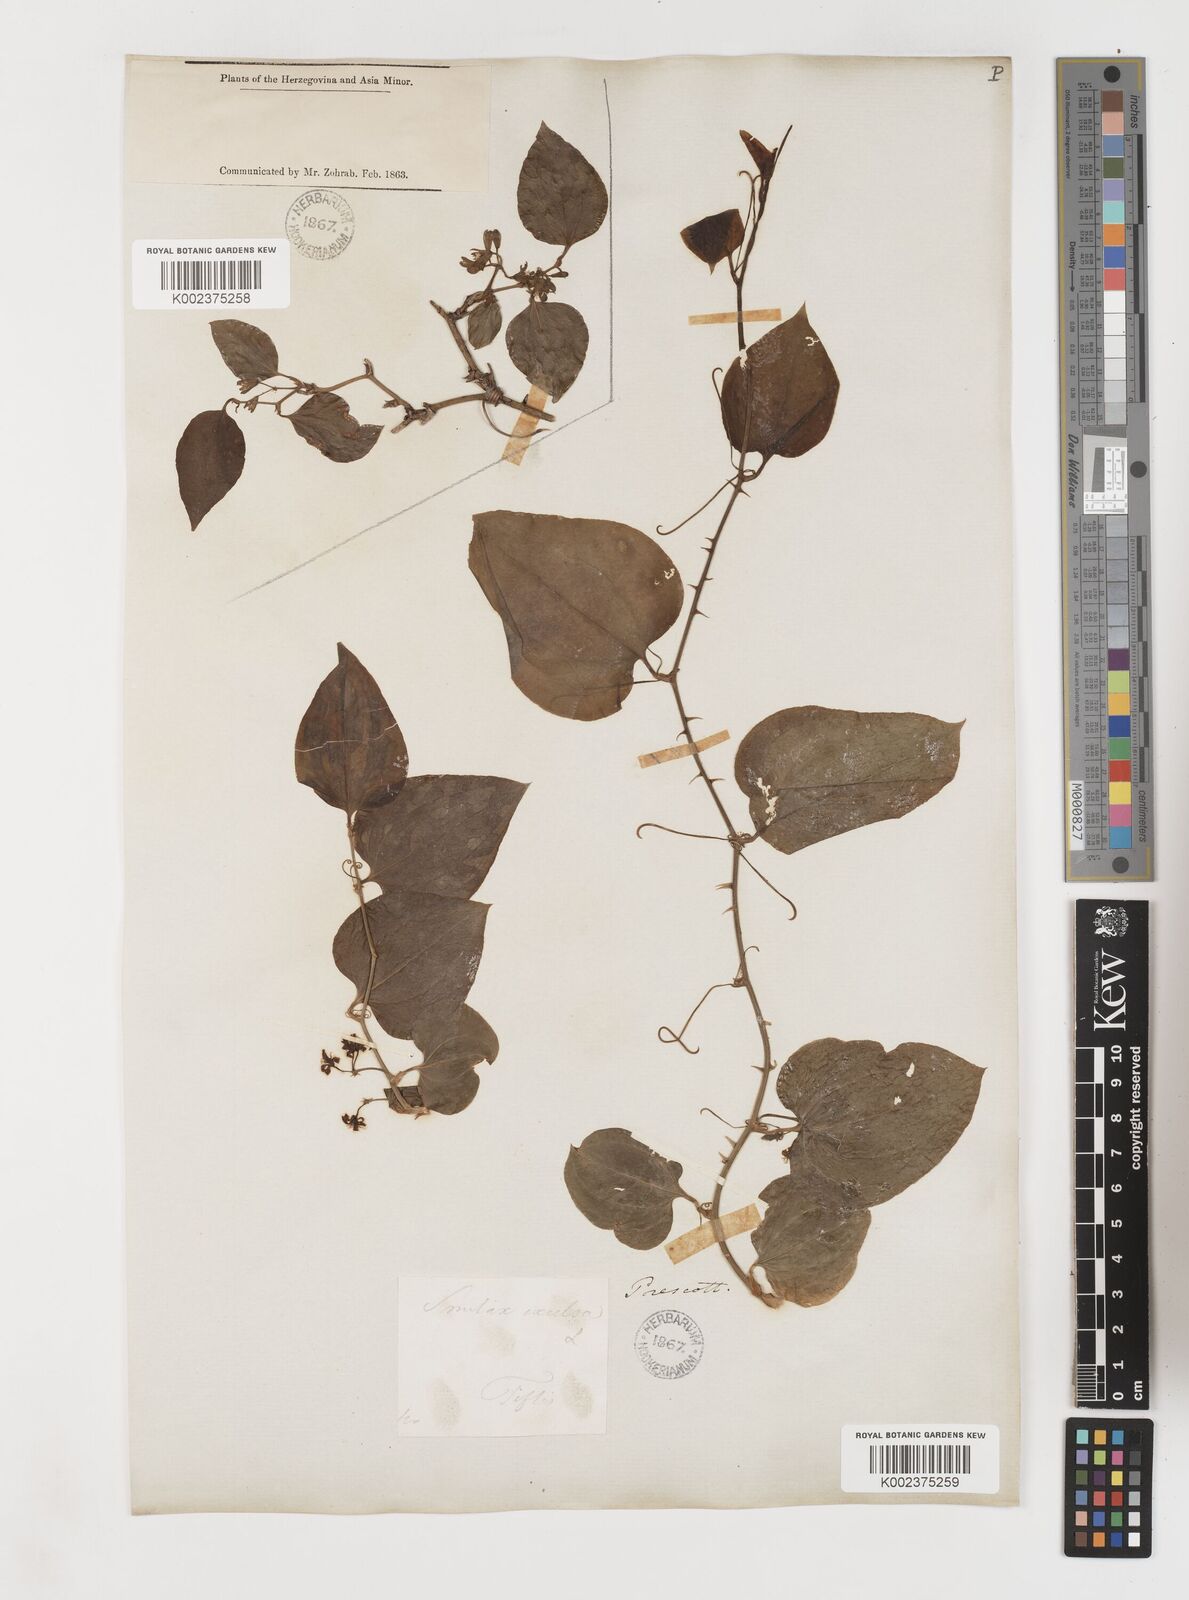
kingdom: Plantae
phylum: Tracheophyta
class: Liliopsida
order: Liliales
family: Smilacaceae
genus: Smilax
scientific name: Smilax excelsa
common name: Larger smilax
